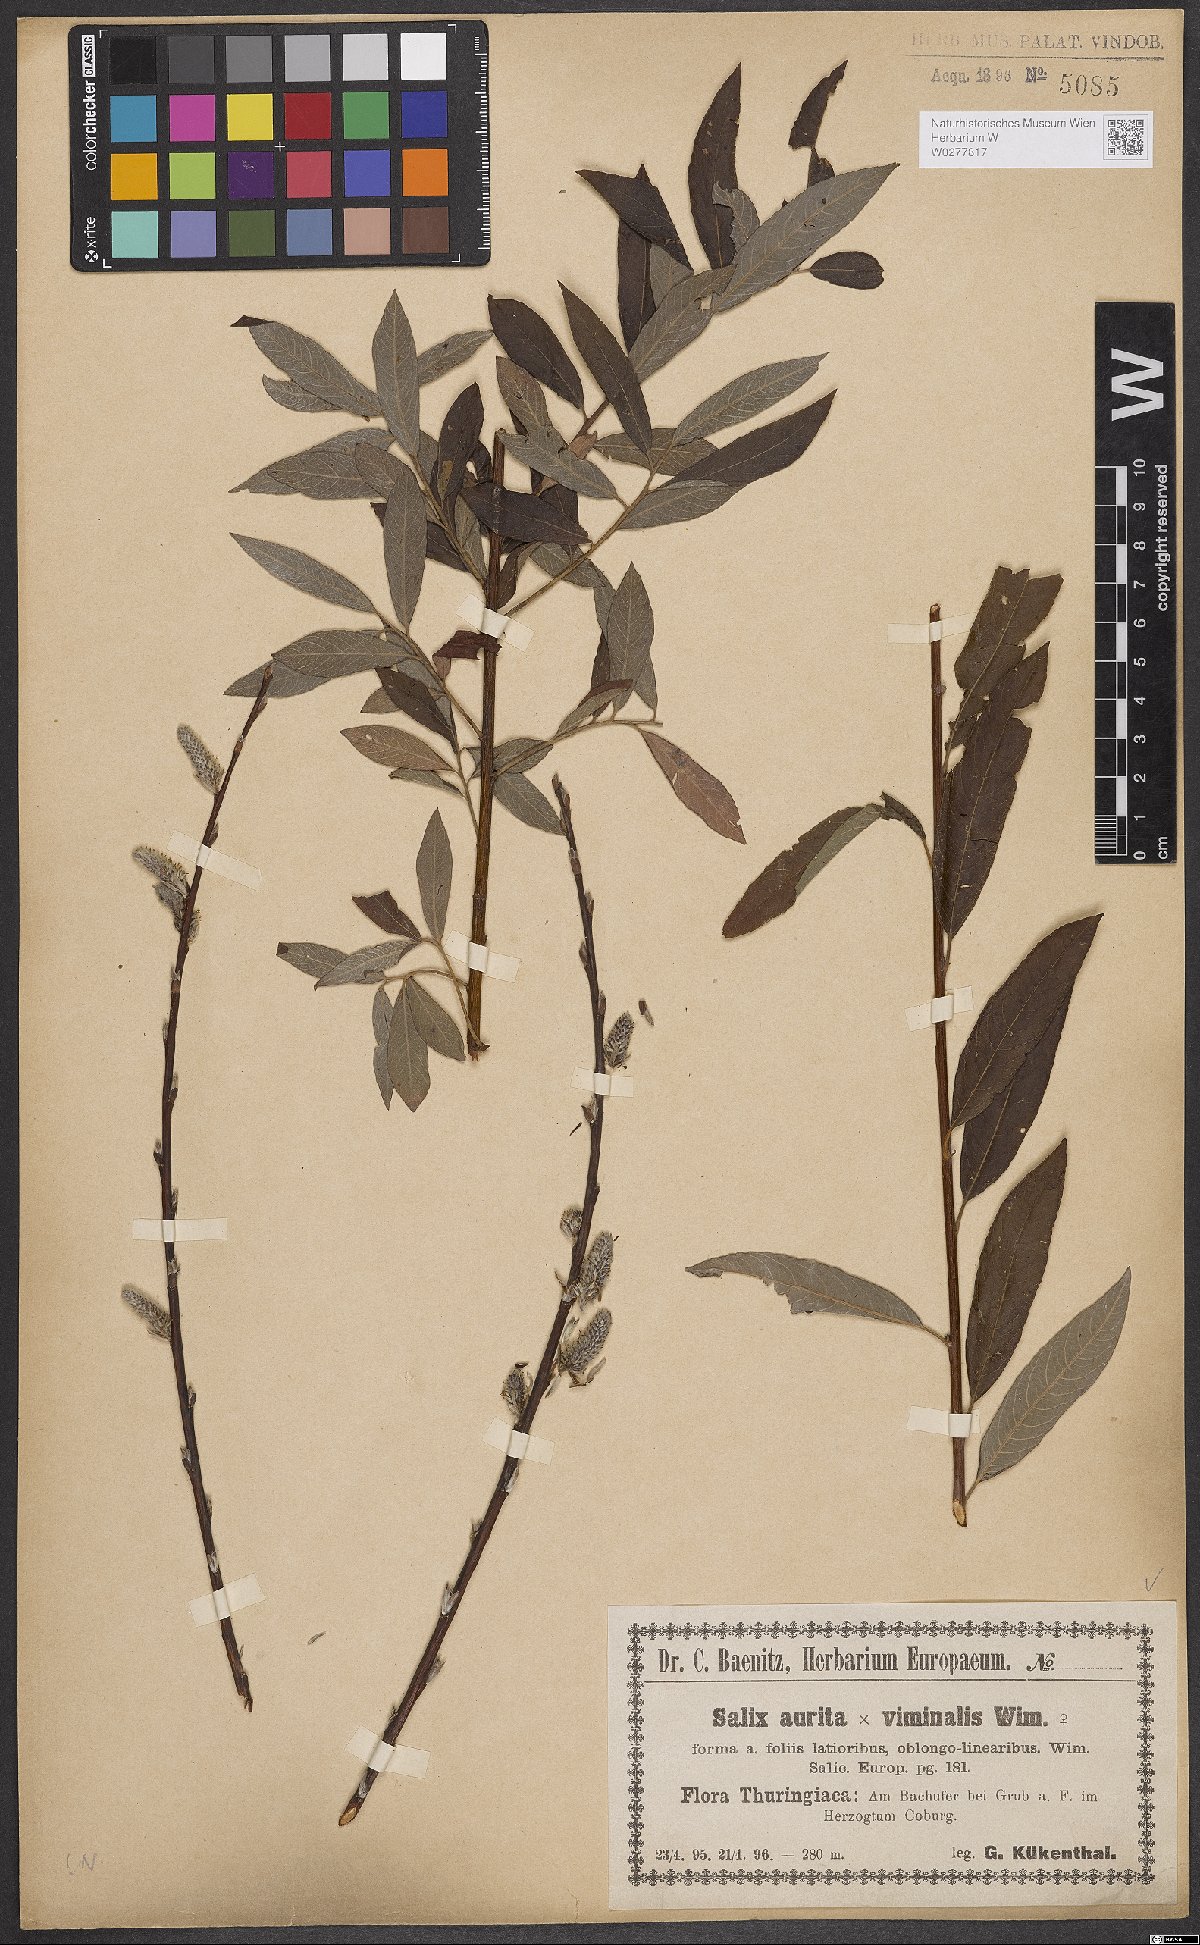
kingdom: Plantae
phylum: Tracheophyta
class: Magnoliopsida
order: Malpighiales
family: Salicaceae
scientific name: Salicaceae
